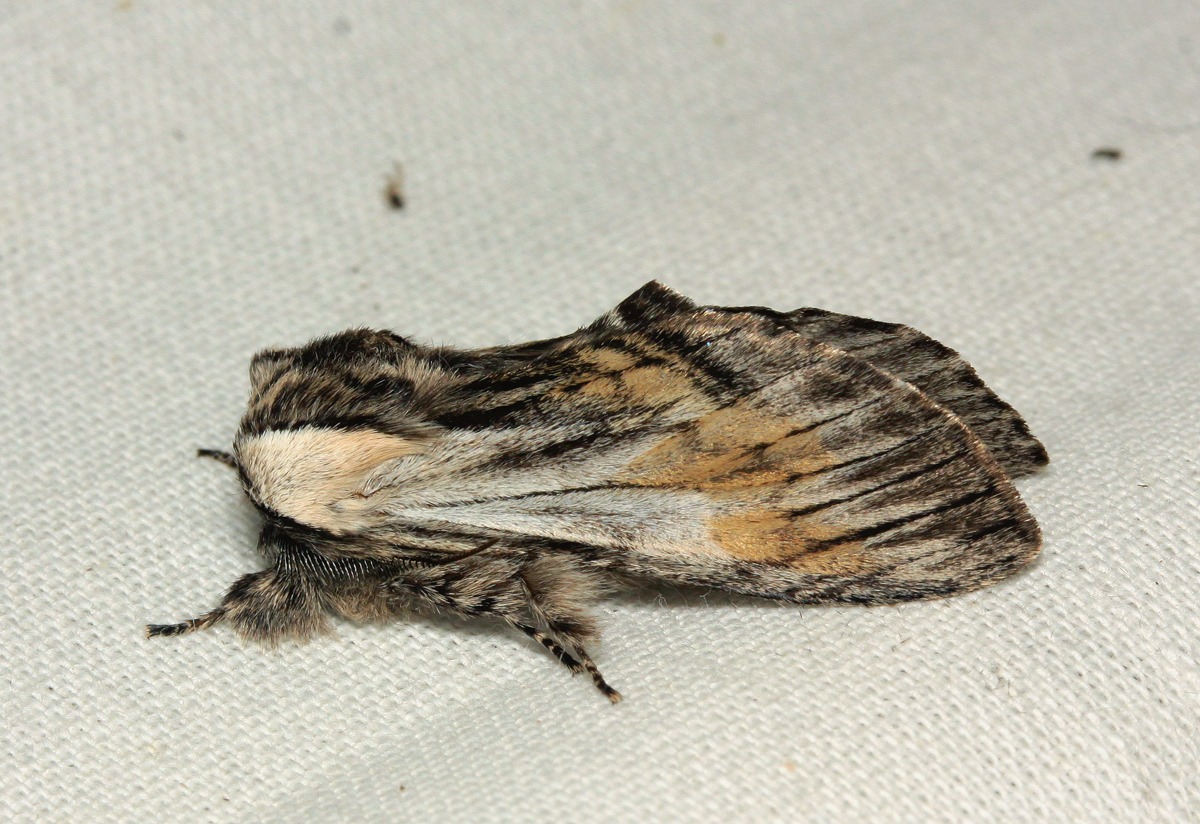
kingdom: Animalia
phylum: Arthropoda
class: Insecta
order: Lepidoptera
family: Notodontidae
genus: Harpyia
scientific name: Harpyia milhauseri
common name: Kamouflagespinder
